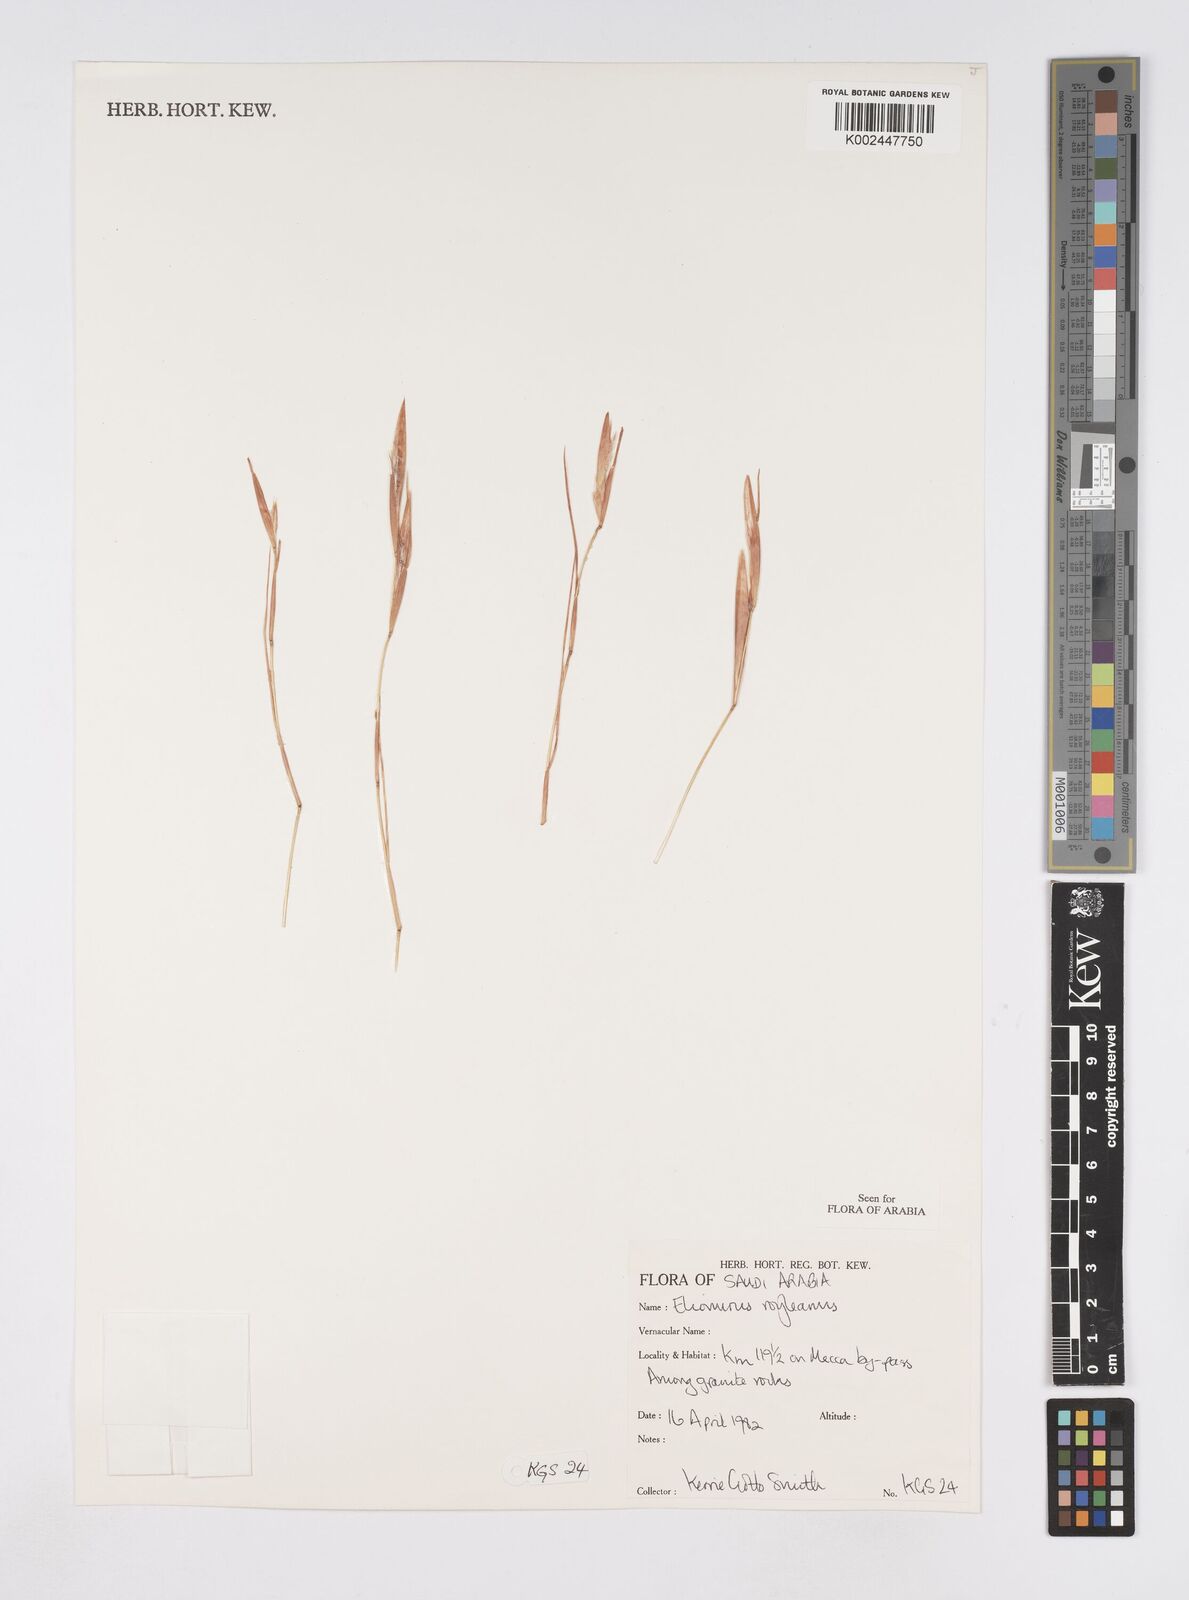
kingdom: Plantae
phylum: Tracheophyta
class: Liliopsida
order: Poales
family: Poaceae
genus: Elionurus
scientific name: Elionurus royleanus
